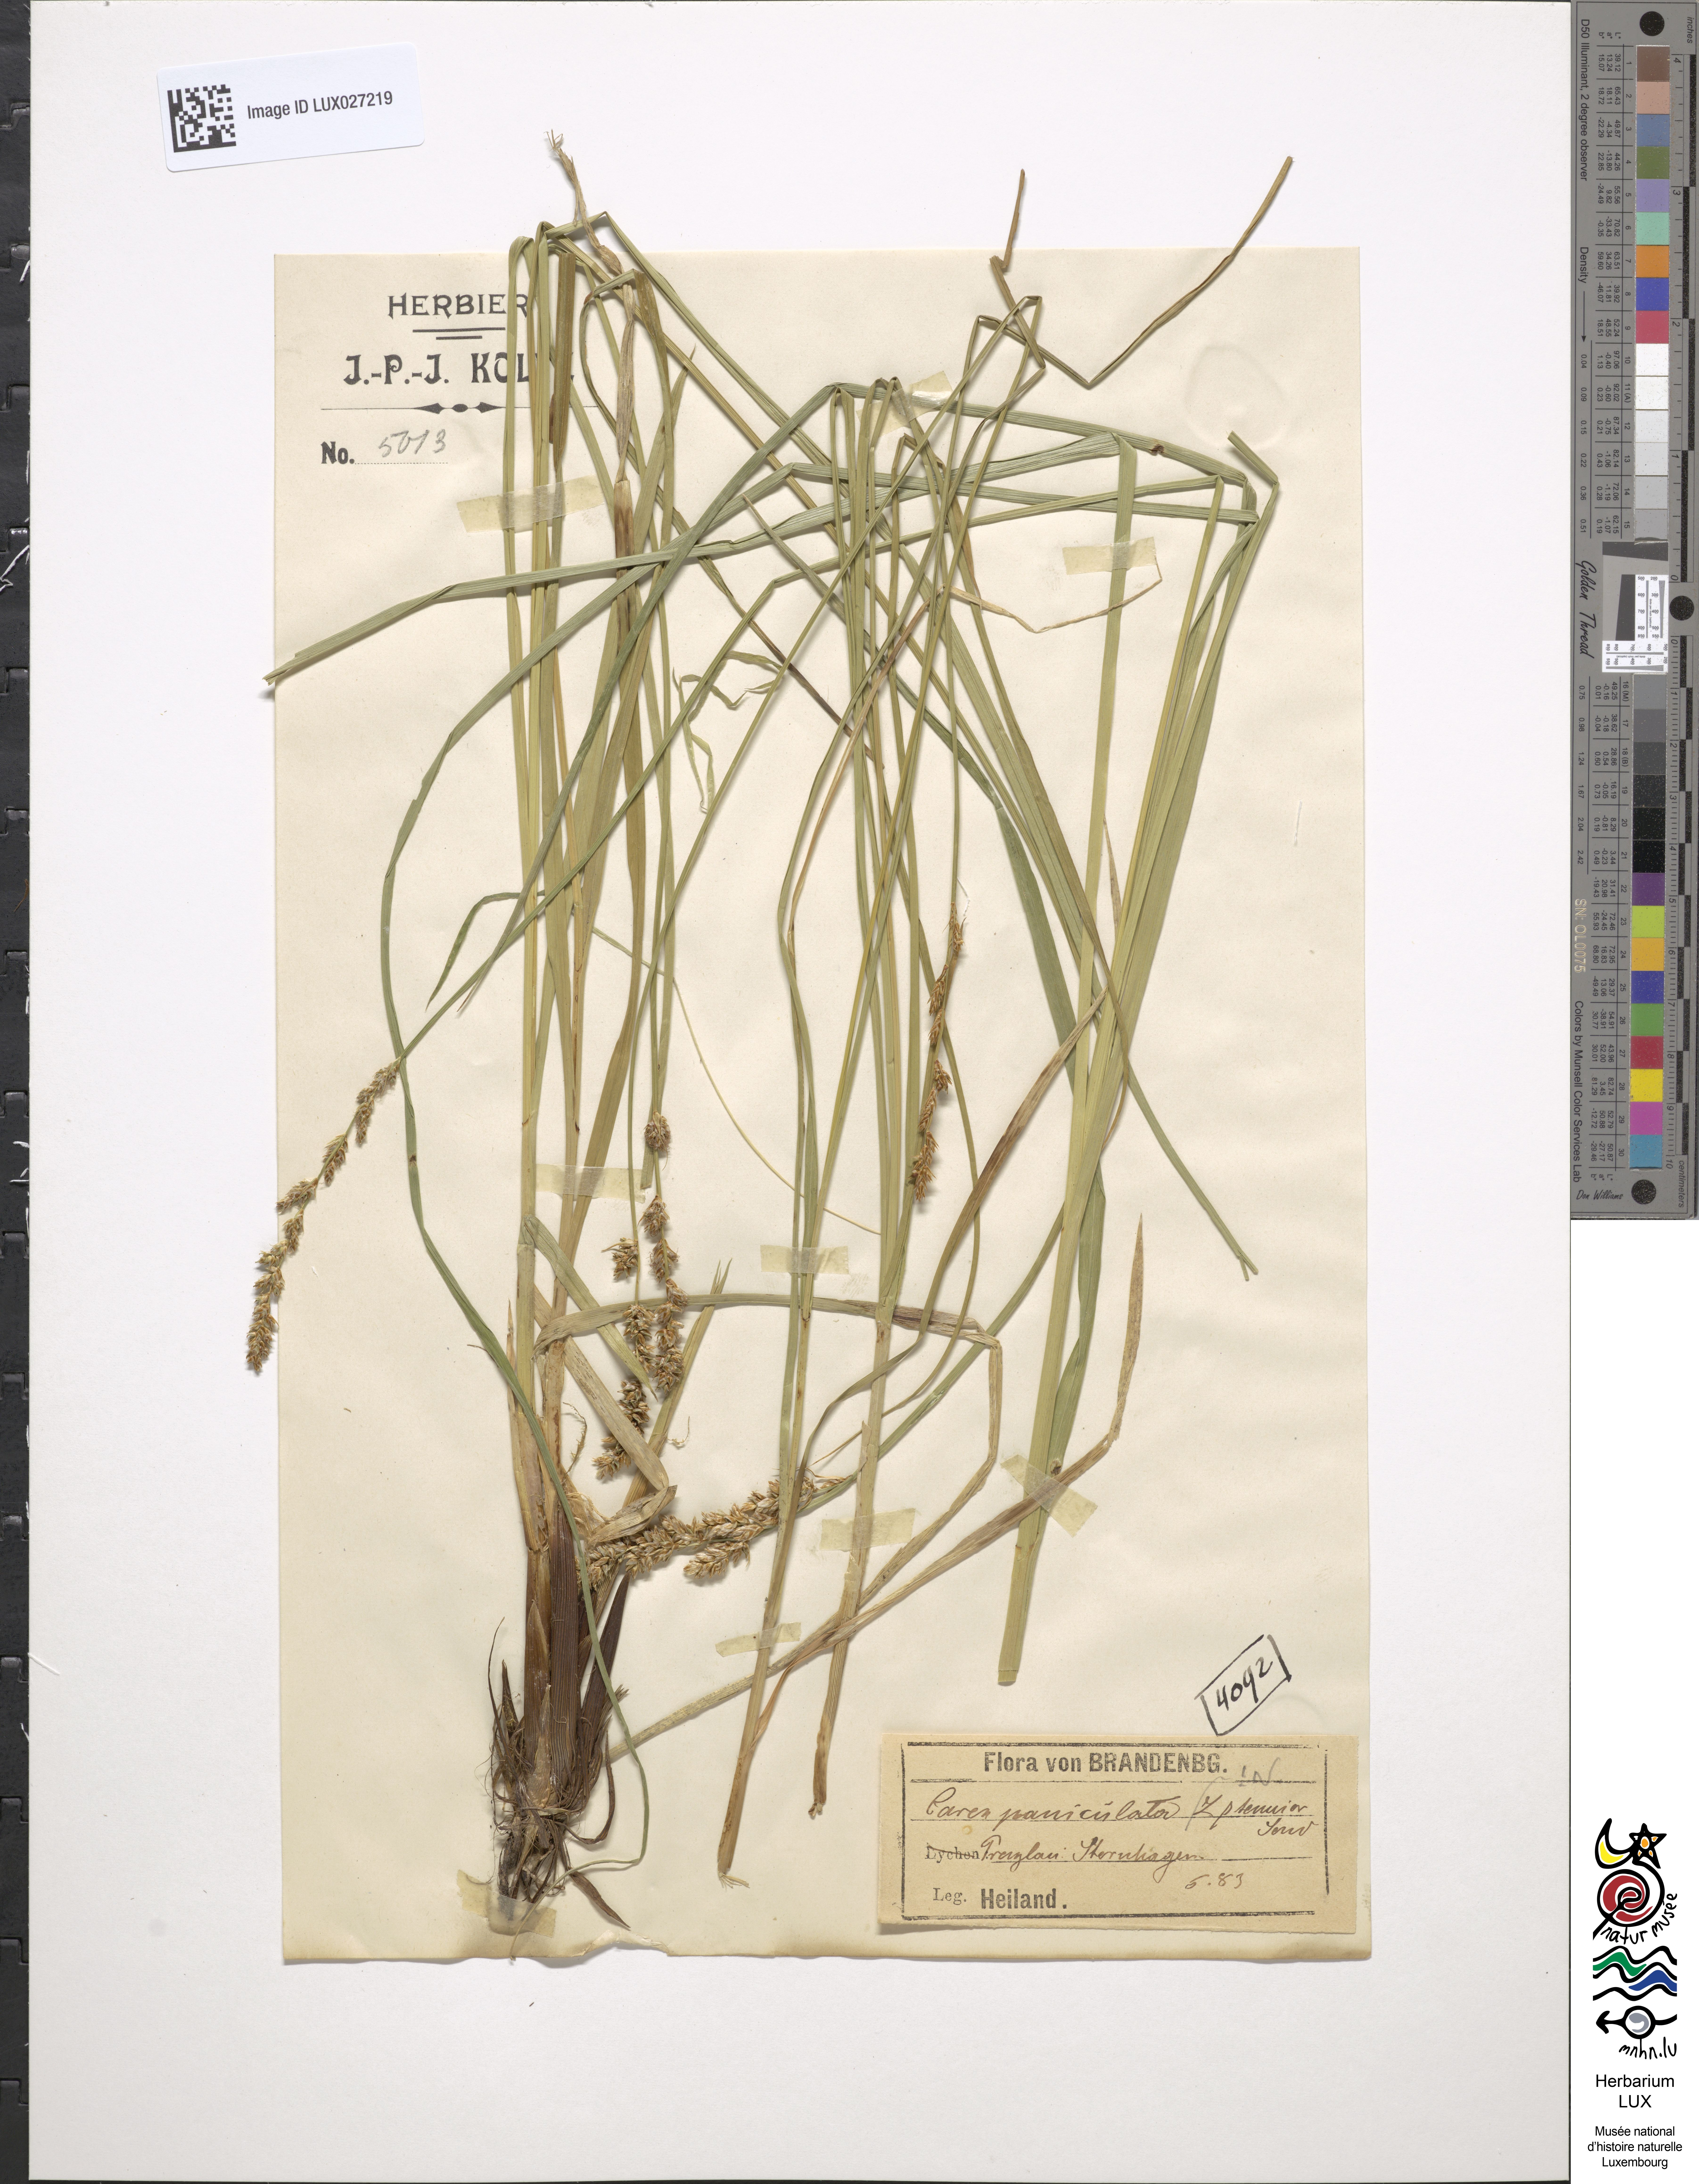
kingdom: Plantae
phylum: Tracheophyta
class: Liliopsida
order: Poales
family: Cyperaceae
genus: Carex
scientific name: Carex paniculata
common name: Greater tussock-sedge
